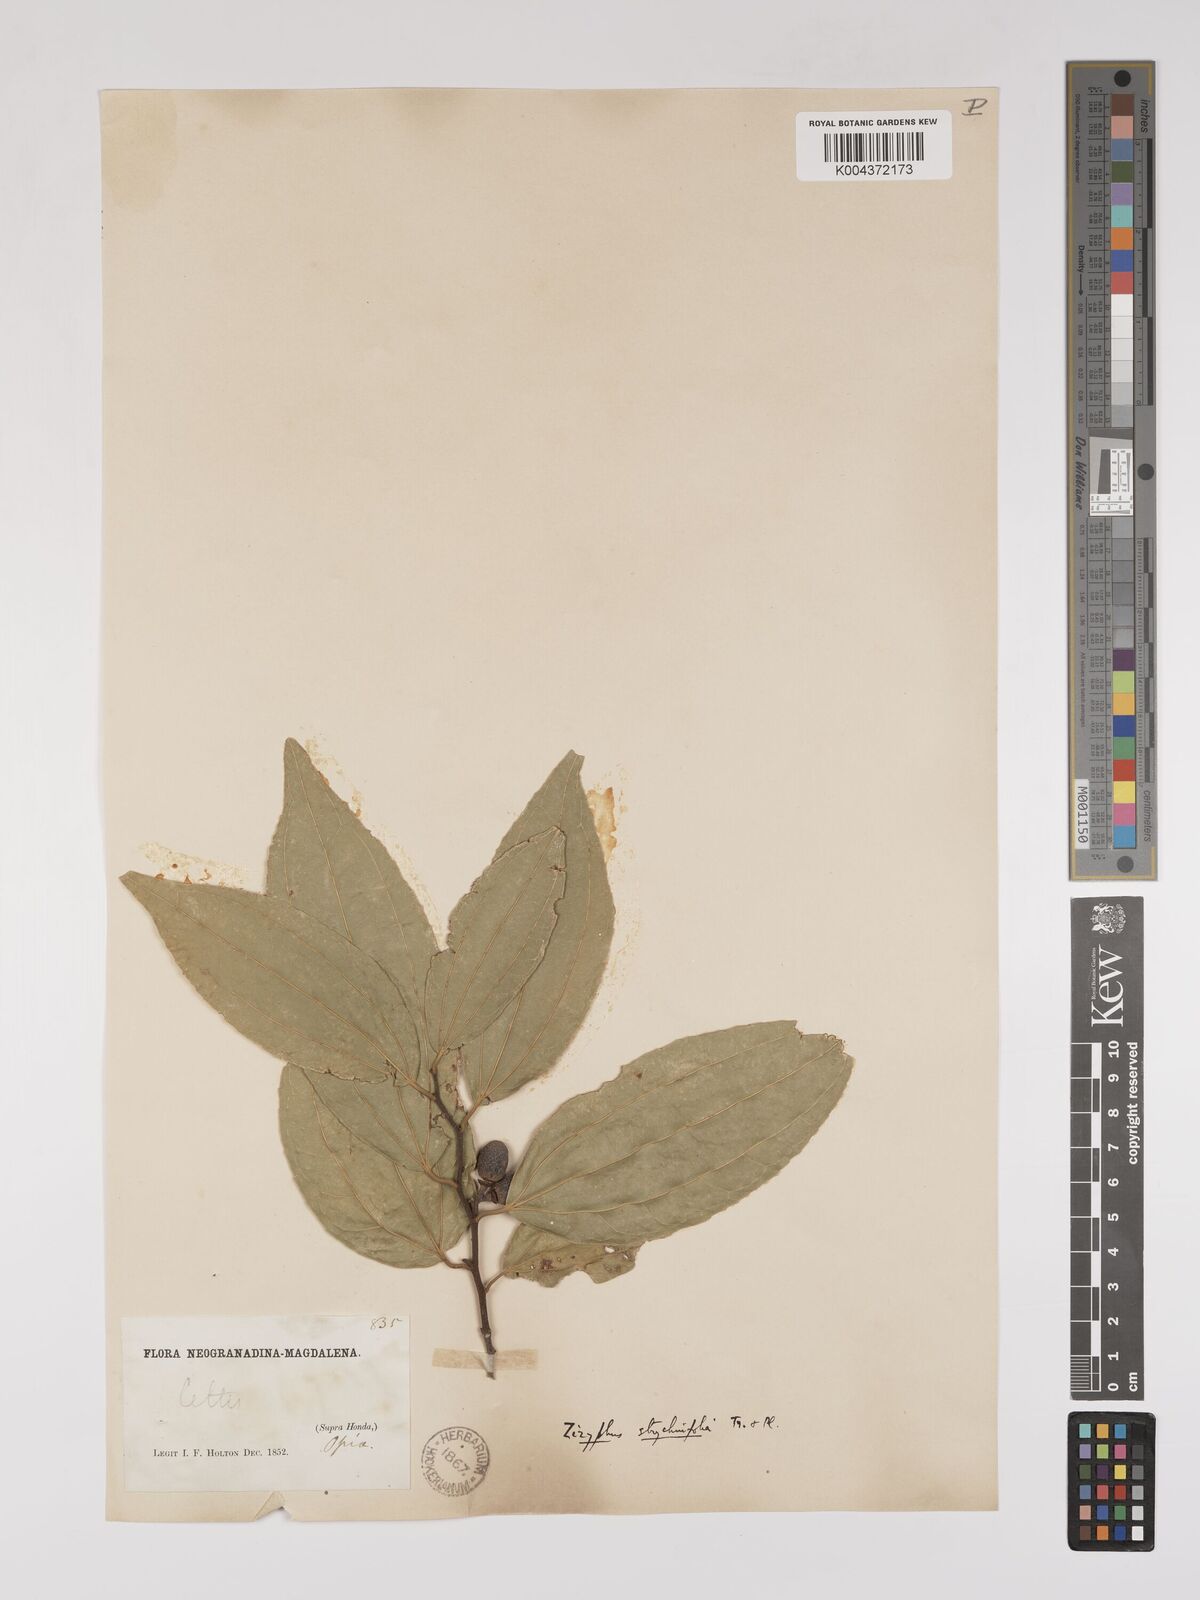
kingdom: Plantae
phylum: Tracheophyta
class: Magnoliopsida
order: Rosales
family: Rhamnaceae
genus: Sarcomphalus
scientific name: Sarcomphalus strychnifolius
